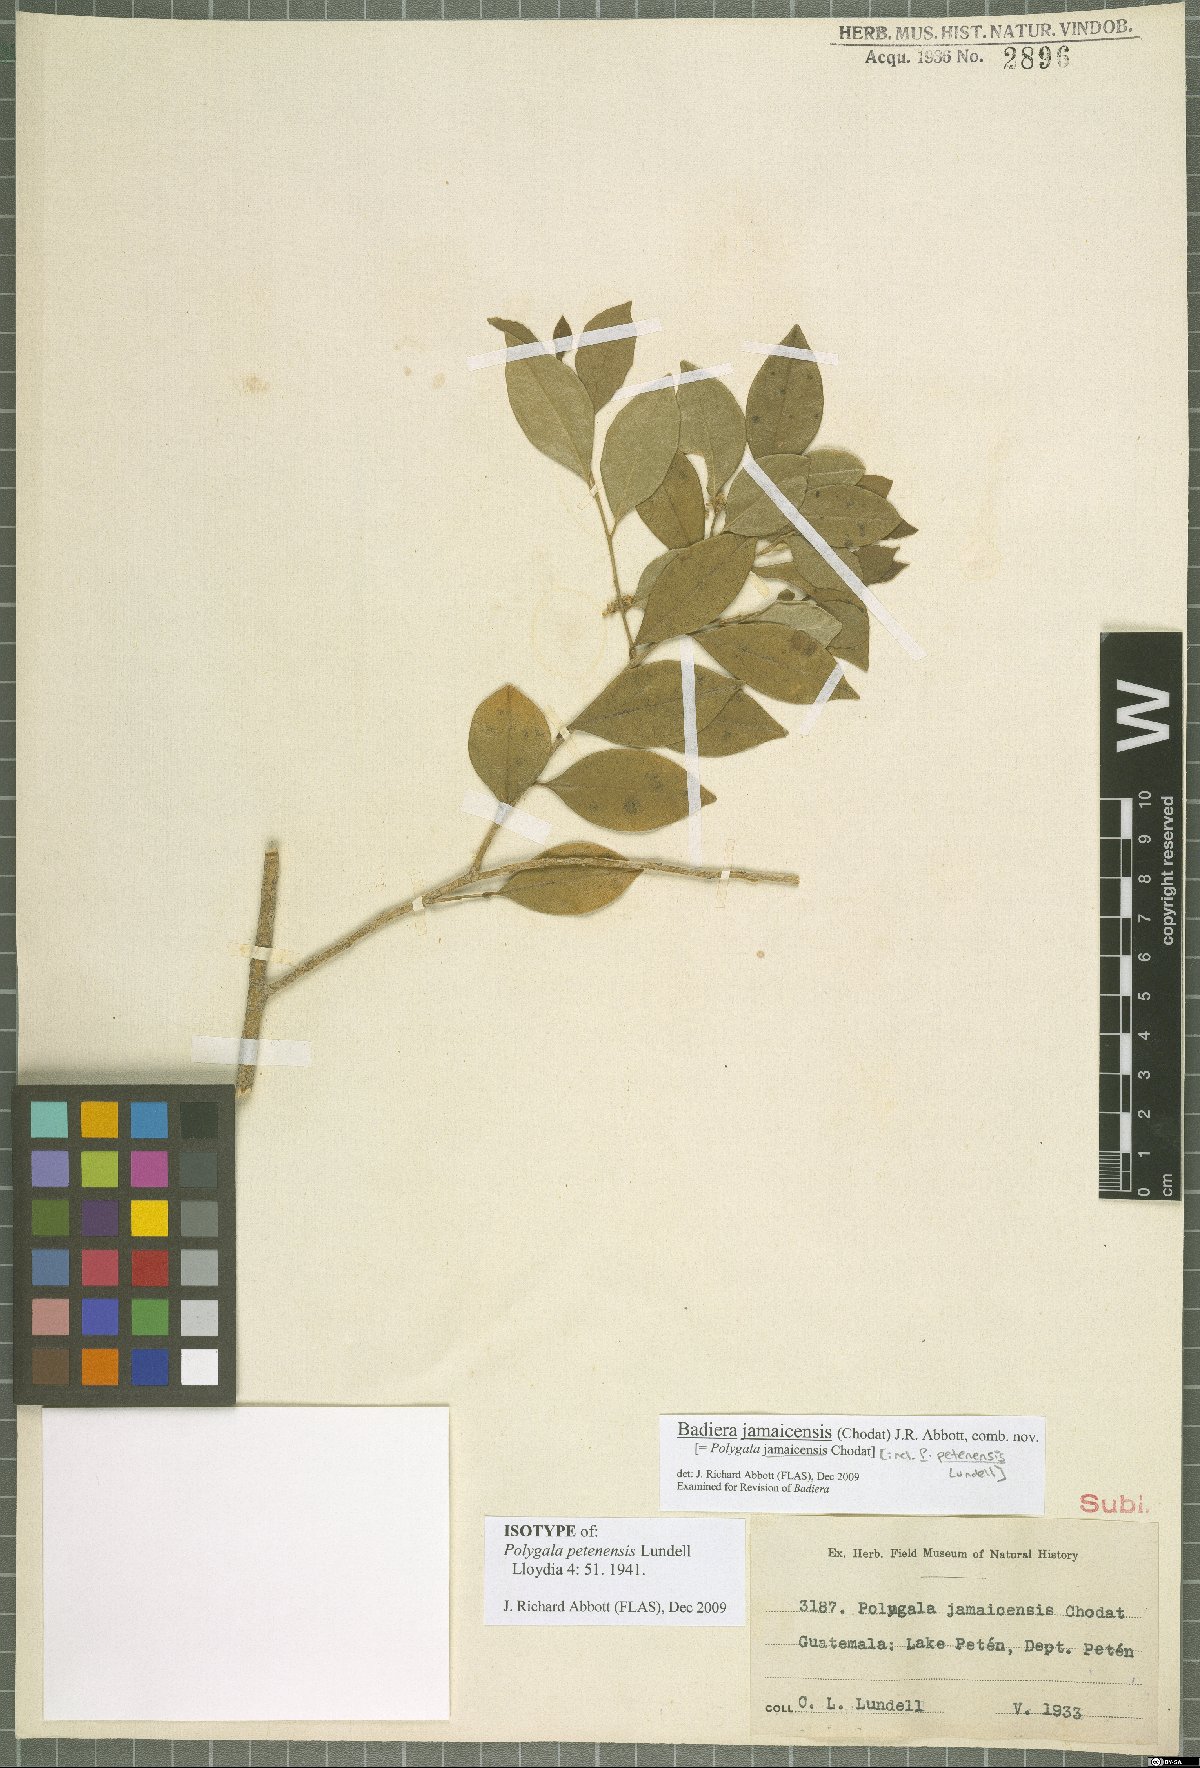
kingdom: Plantae
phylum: Tracheophyta
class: Magnoliopsida
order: Fabales
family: Polygalaceae
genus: Polygala
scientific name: Polygala jamaicensis
